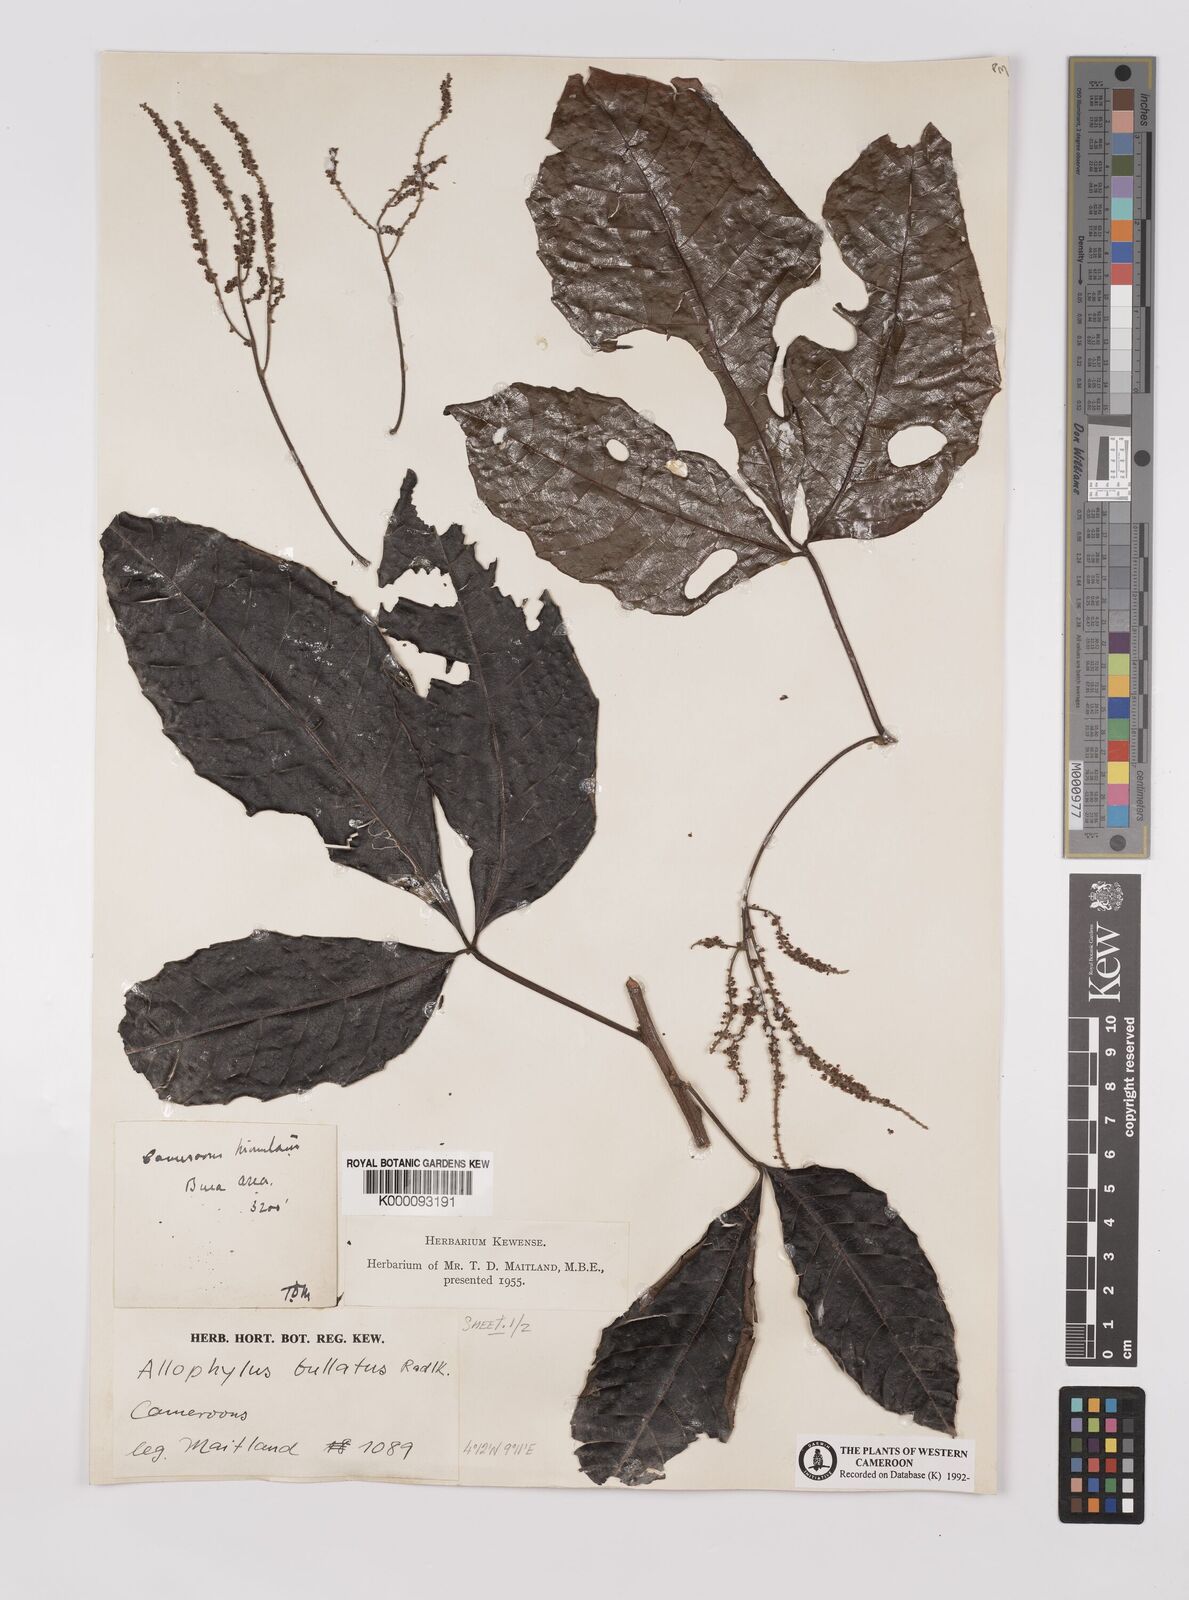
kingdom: Plantae
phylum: Tracheophyta
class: Magnoliopsida
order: Sapindales
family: Sapindaceae
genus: Allophylus
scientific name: Allophylus bullatus
